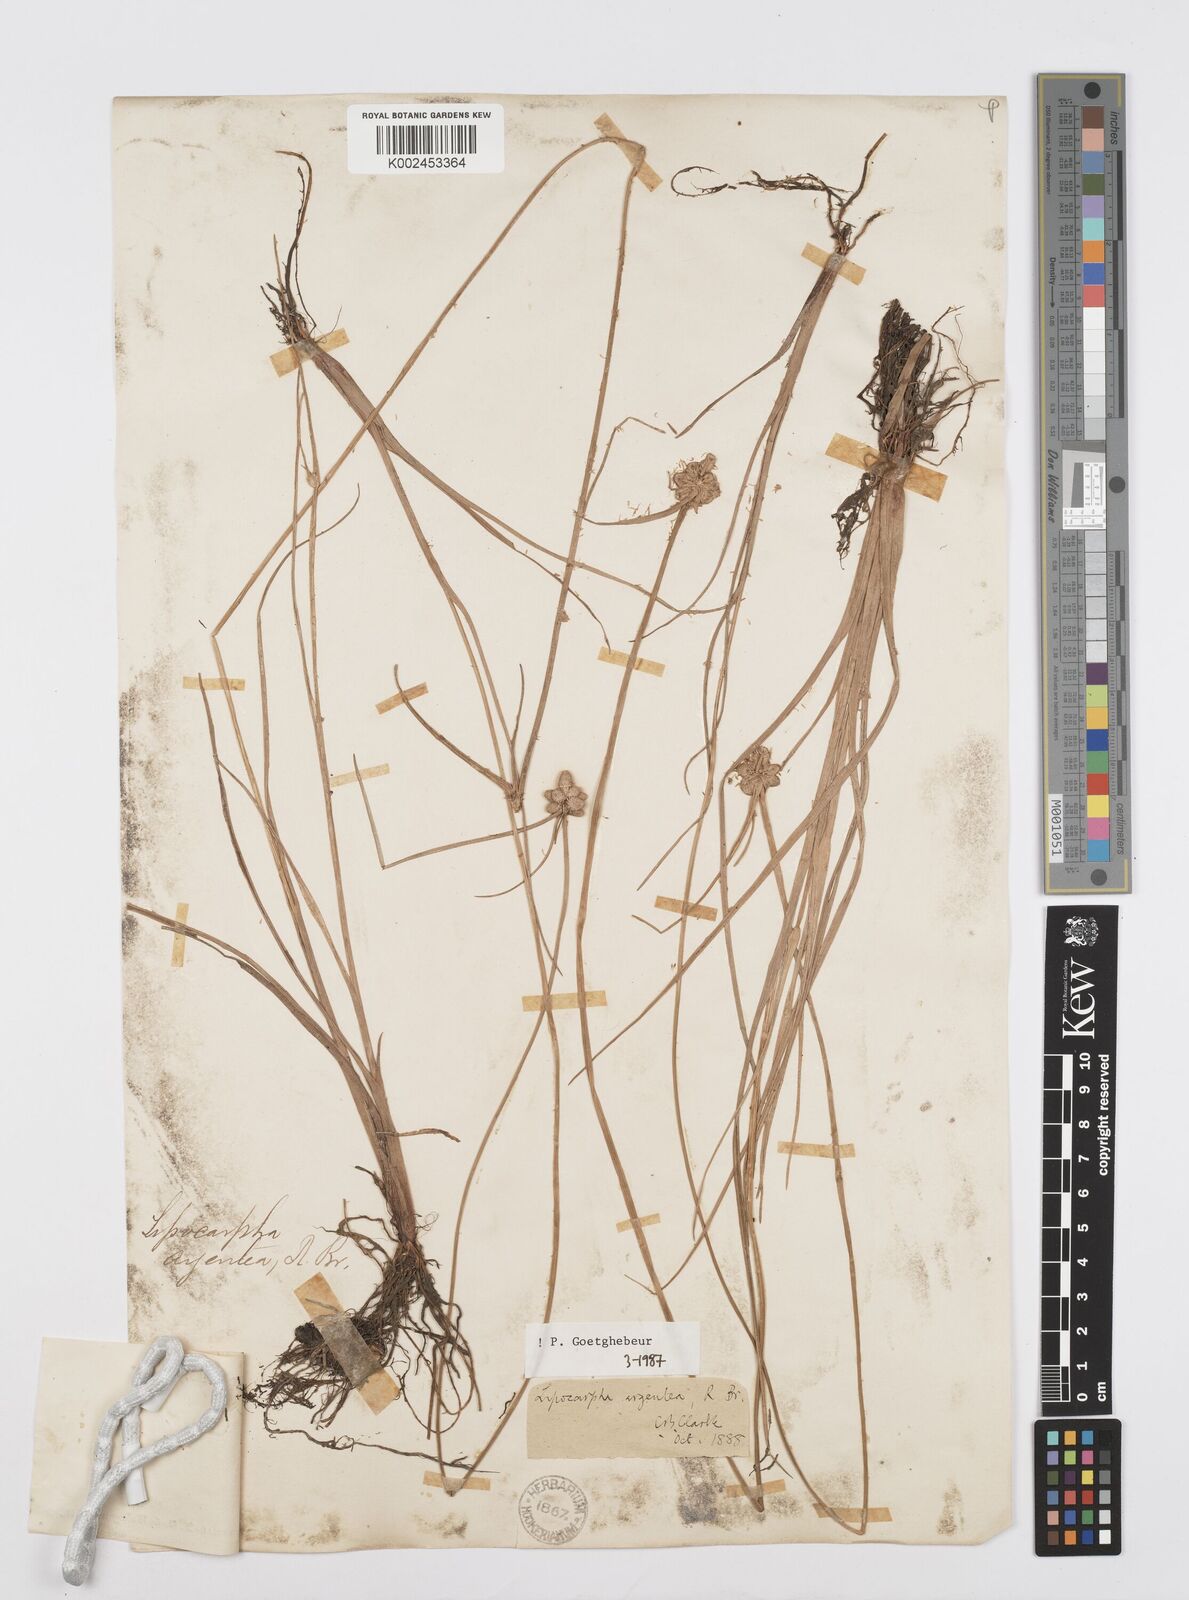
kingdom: Plantae
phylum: Tracheophyta
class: Liliopsida
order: Poales
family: Cyperaceae
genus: Cyperus
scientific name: Cyperus
